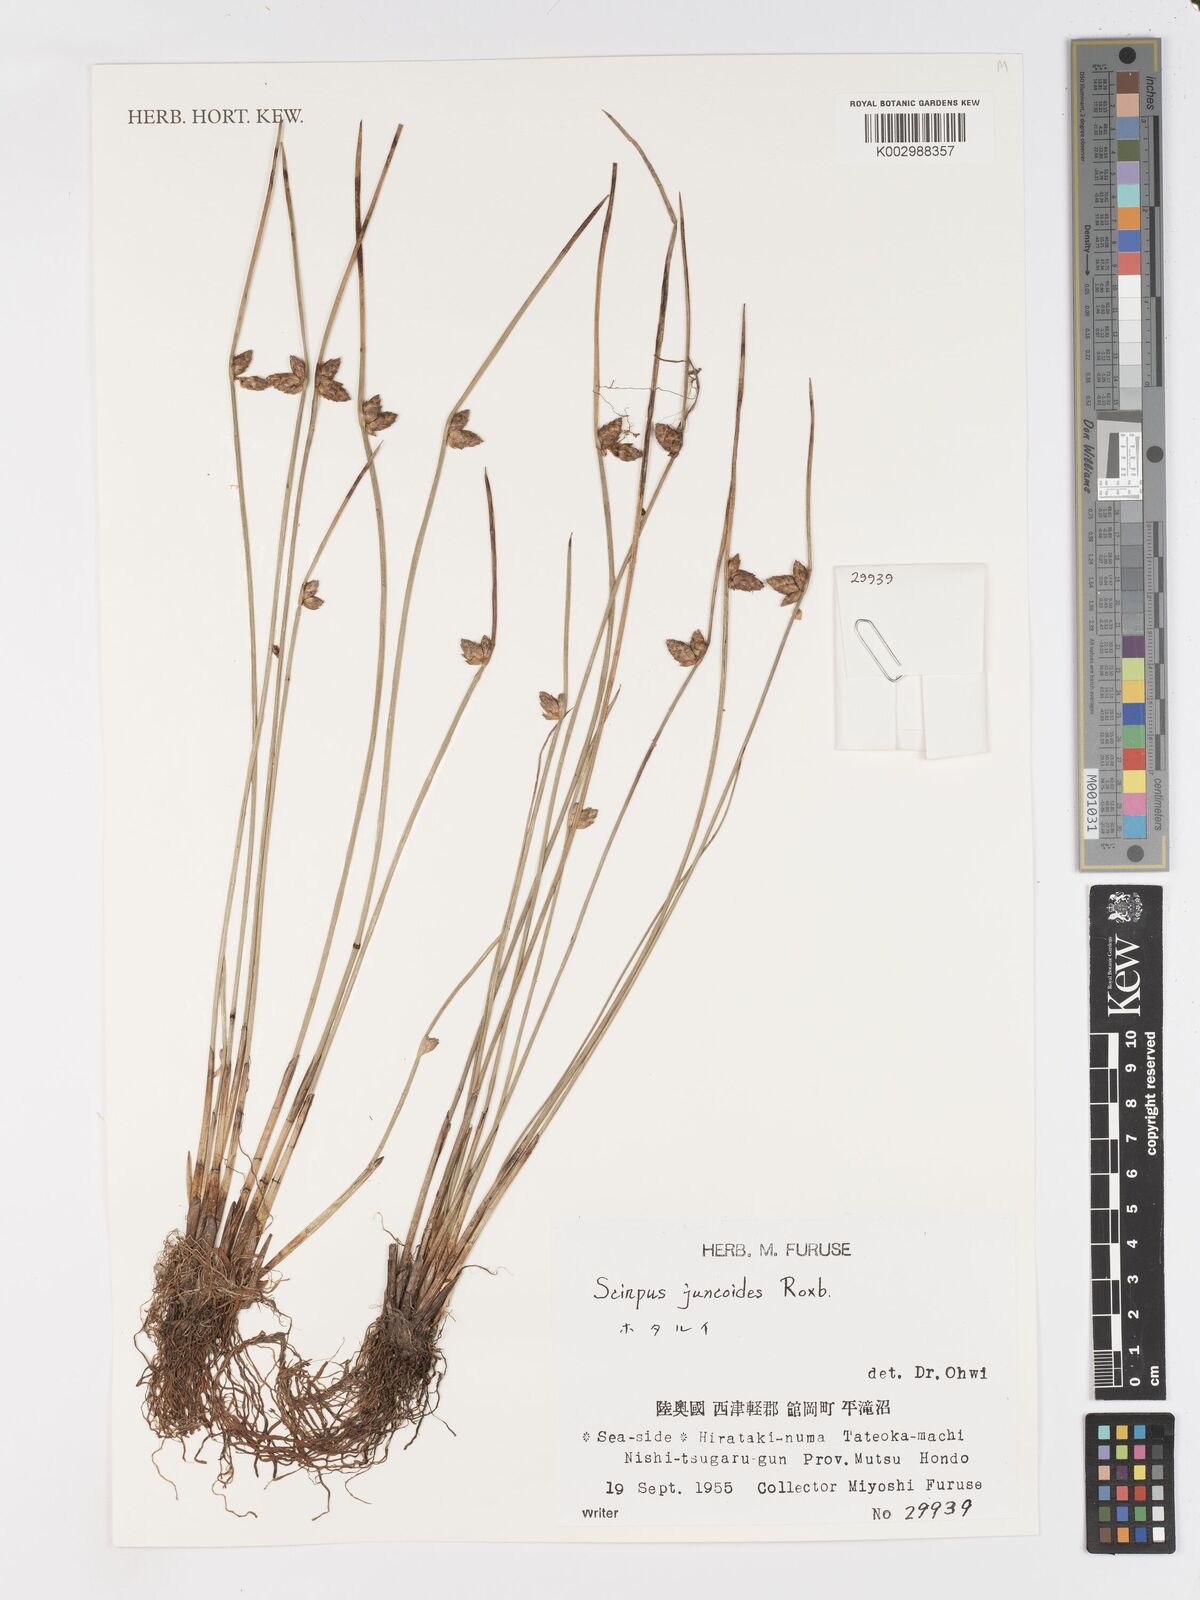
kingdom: Plantae
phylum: Tracheophyta
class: Liliopsida
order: Poales
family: Cyperaceae
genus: Schoenoplectiella
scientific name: Schoenoplectiella juncoides
